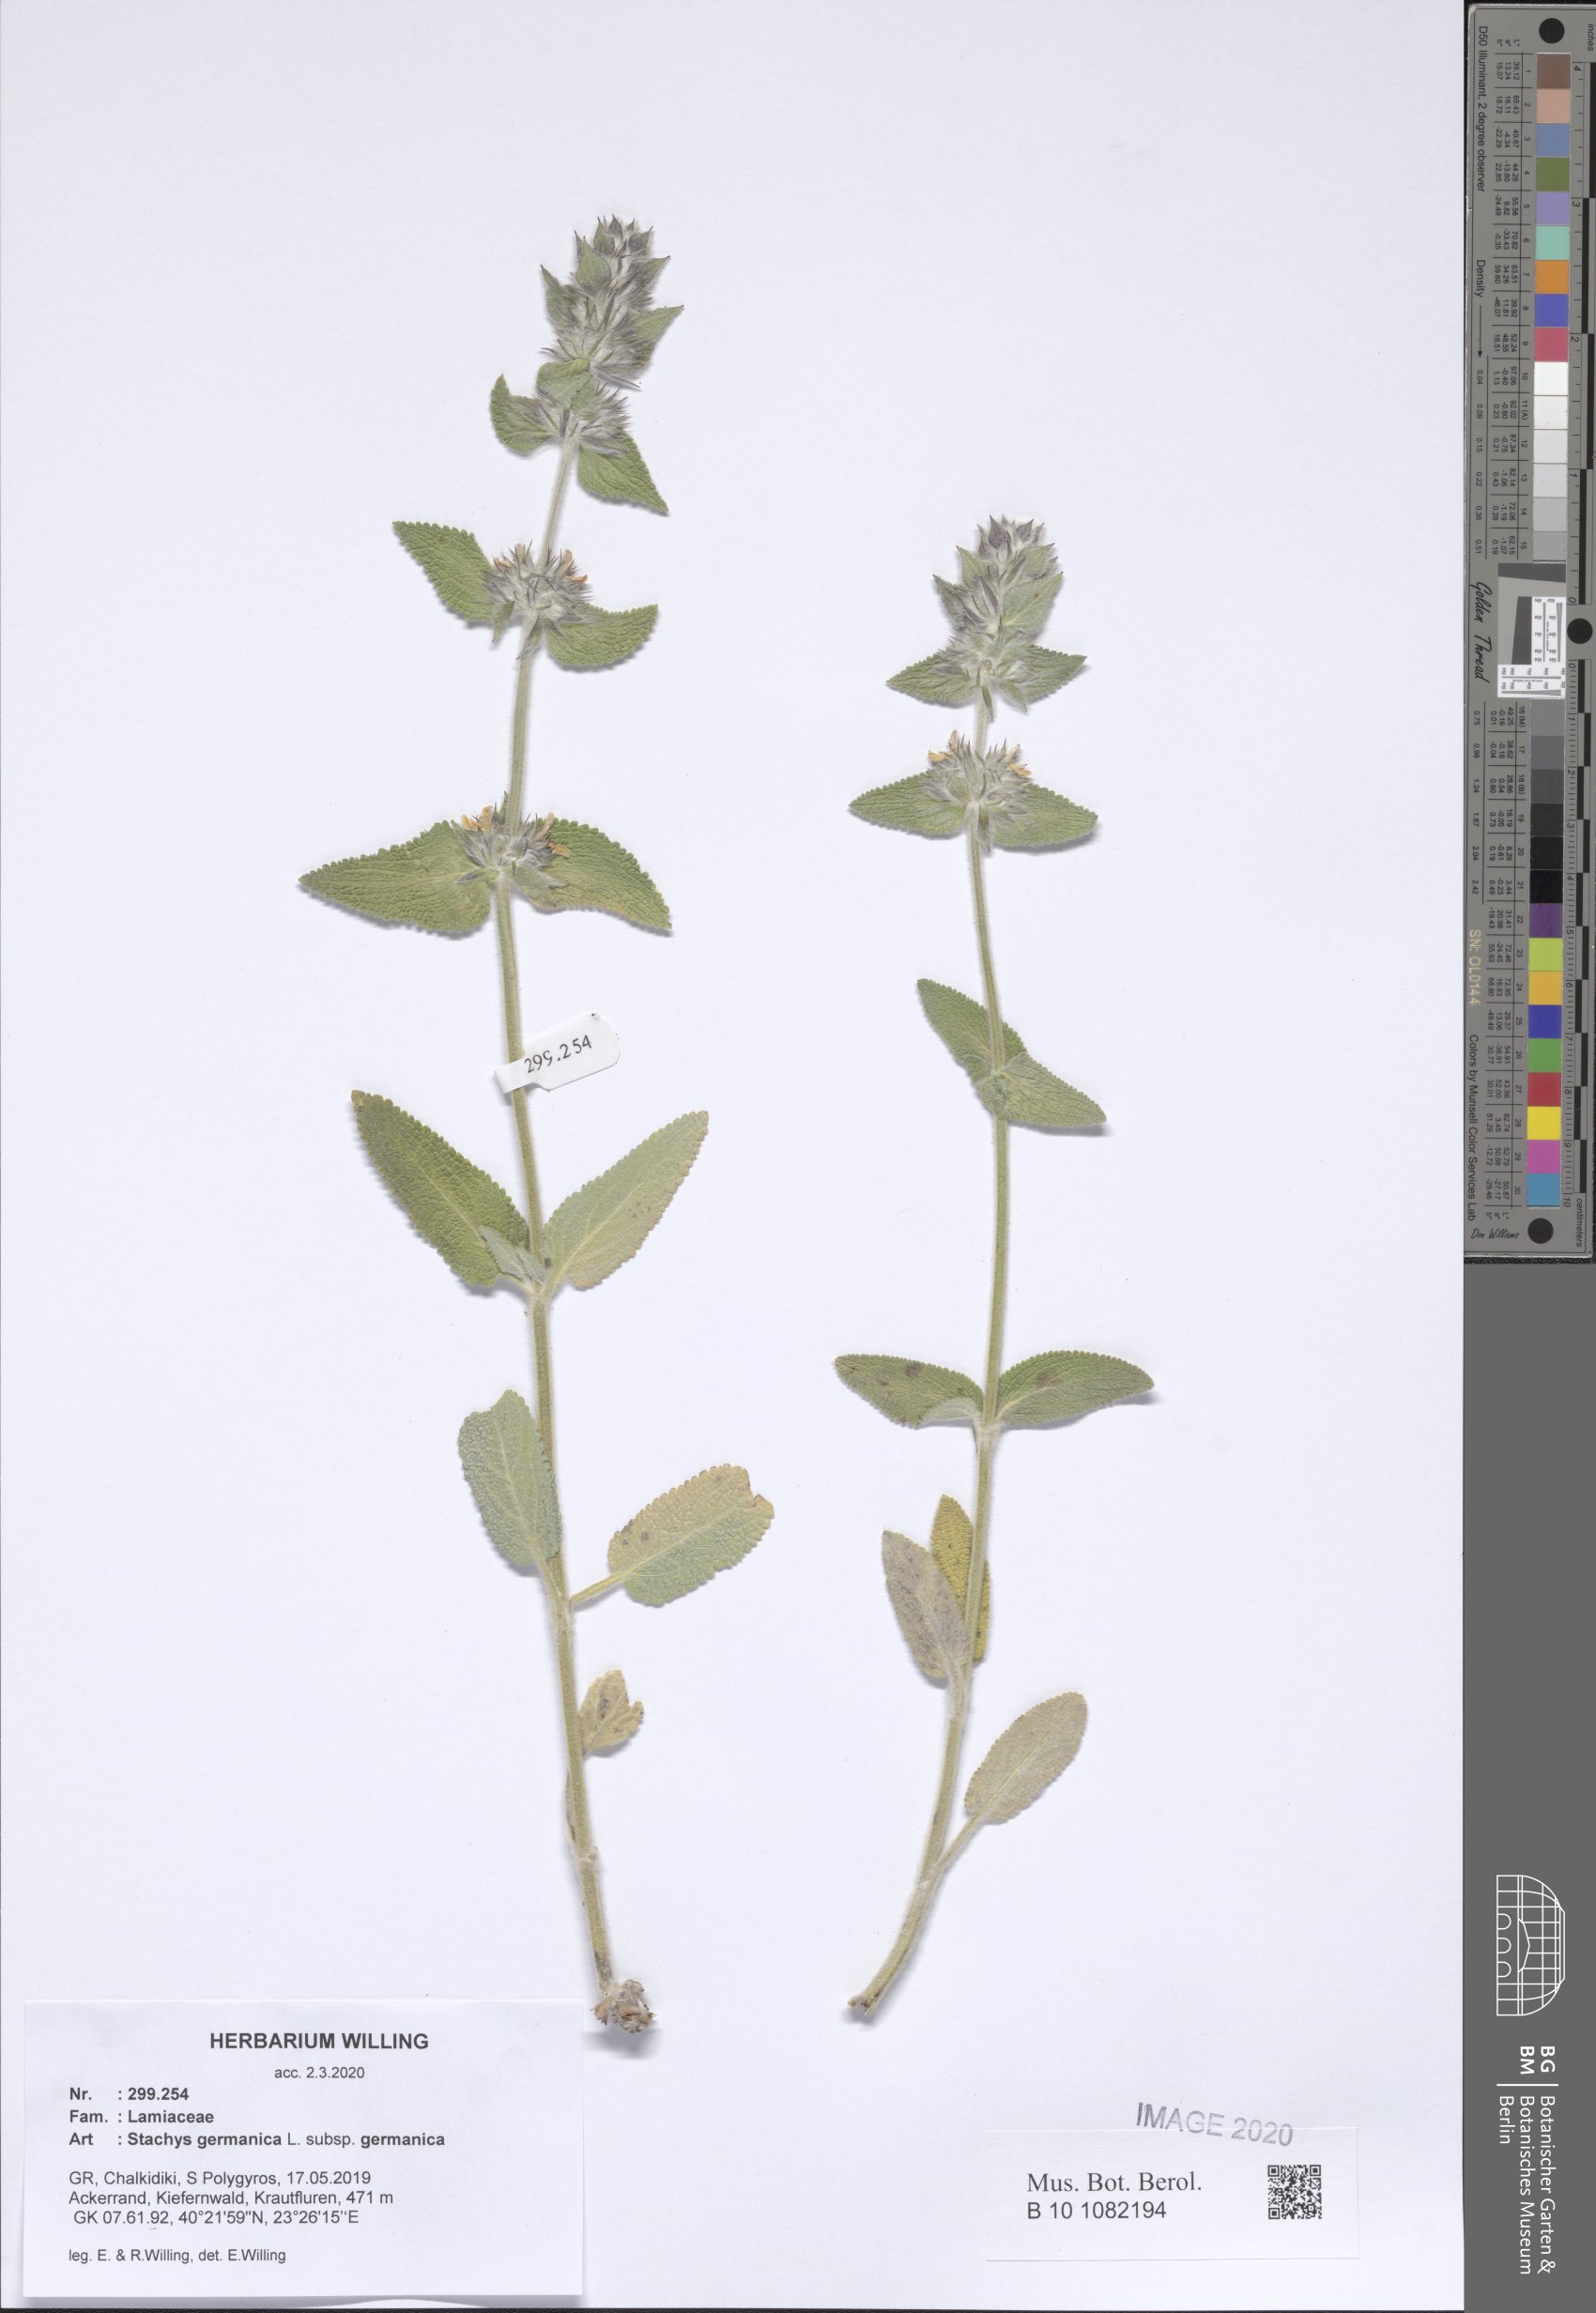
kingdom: Plantae
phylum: Tracheophyta
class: Magnoliopsida
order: Lamiales
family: Lamiaceae
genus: Stachys
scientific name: Stachys germanica
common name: Downy woundwort
